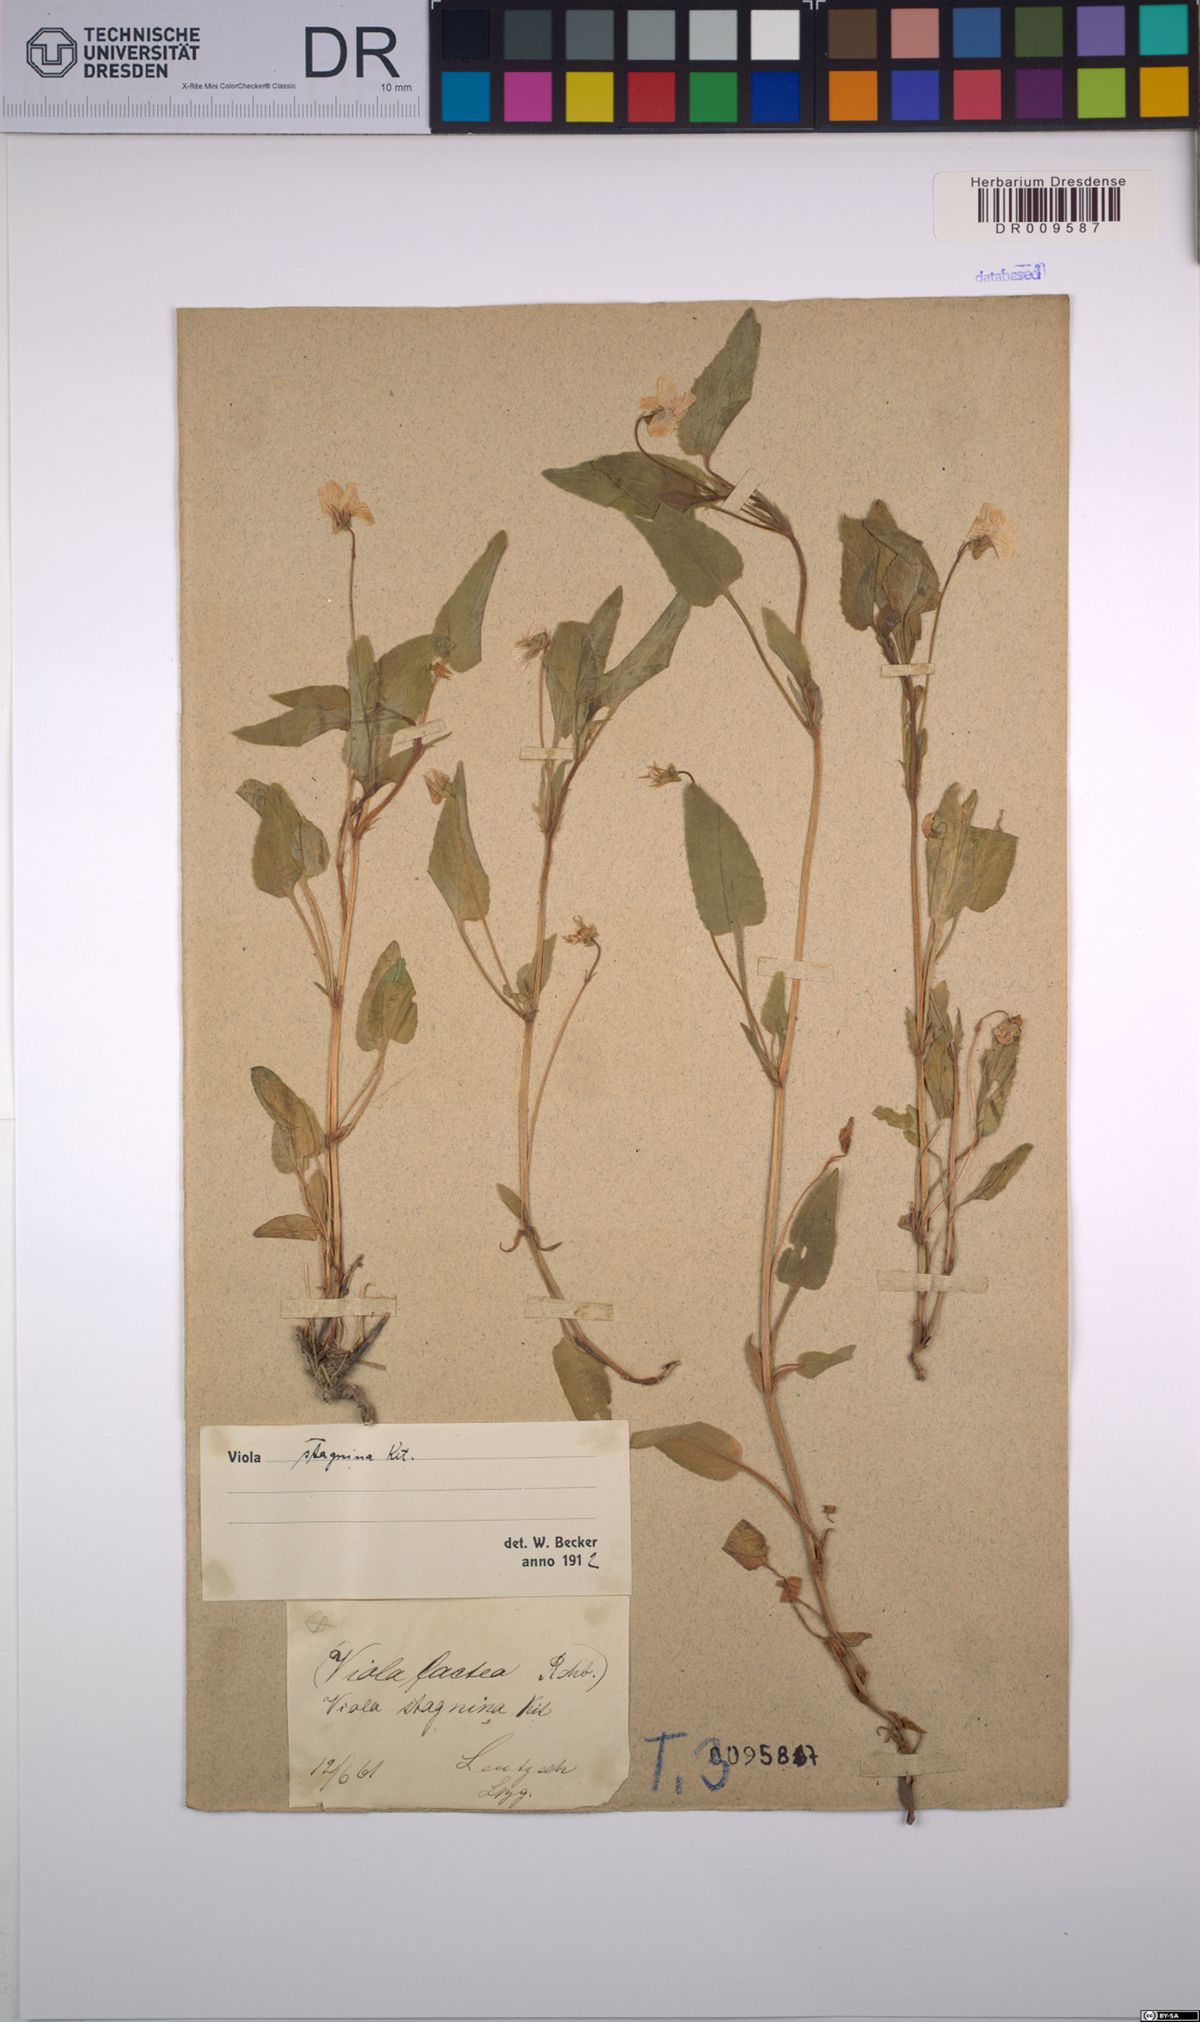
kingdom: Plantae
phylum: Tracheophyta
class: Magnoliopsida
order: Malpighiales
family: Violaceae
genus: Viola
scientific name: Viola stagnina
